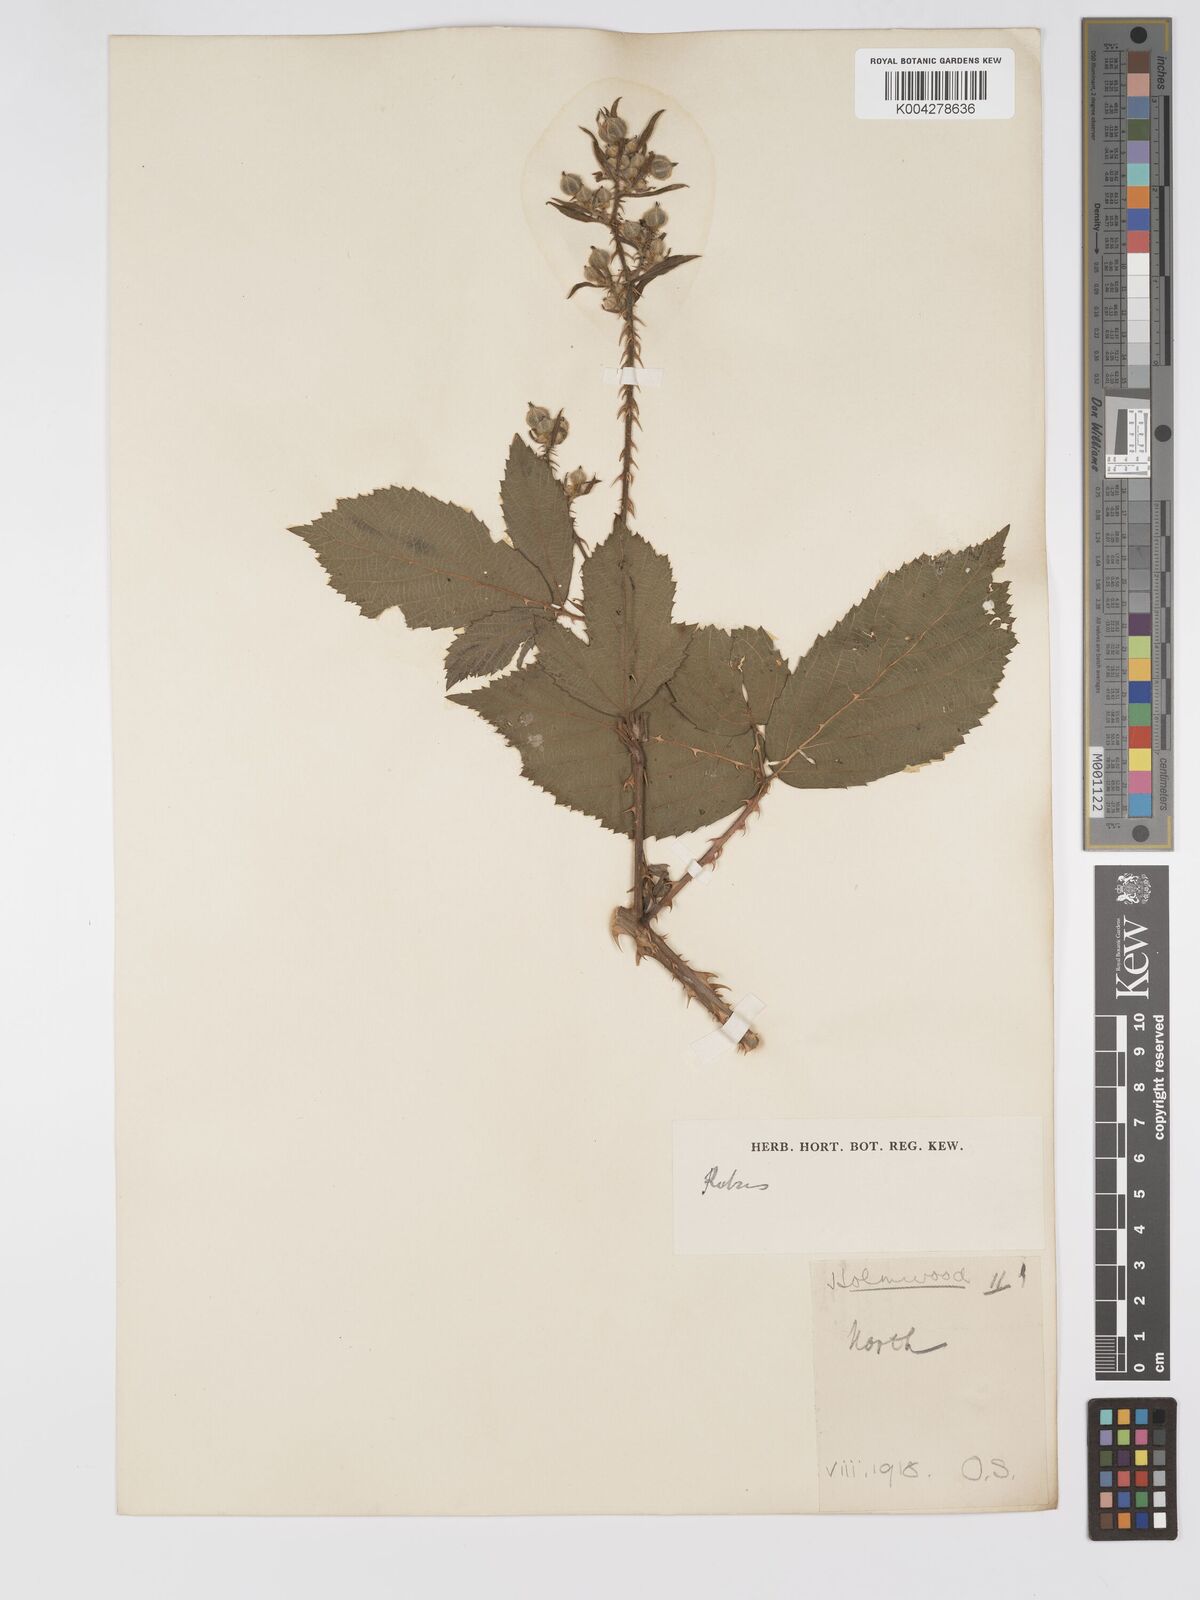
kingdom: Plantae
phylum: Tracheophyta
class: Magnoliopsida
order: Rosales
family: Rosaceae
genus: Rubus
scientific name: Rubus ahenifolius
